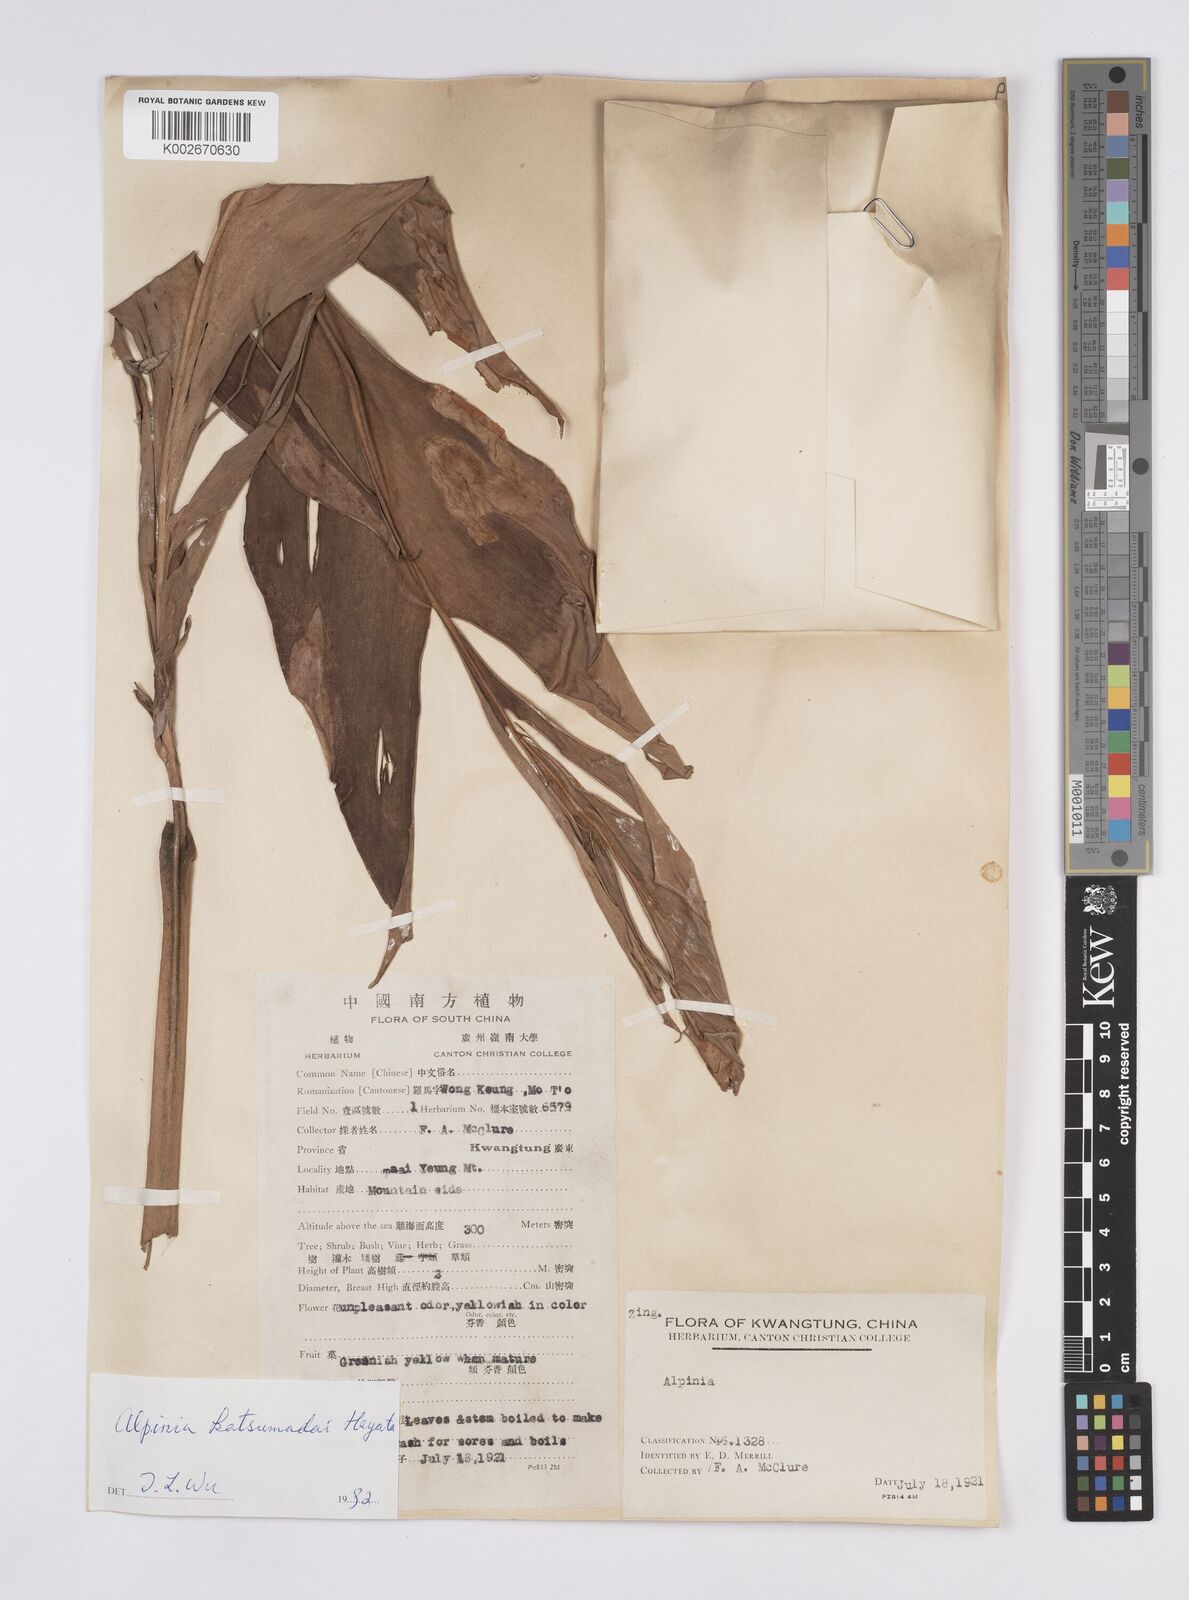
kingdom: Plantae
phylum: Tracheophyta
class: Liliopsida
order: Zingiberales
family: Zingiberaceae
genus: Alpinia
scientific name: Alpinia hainanensis
